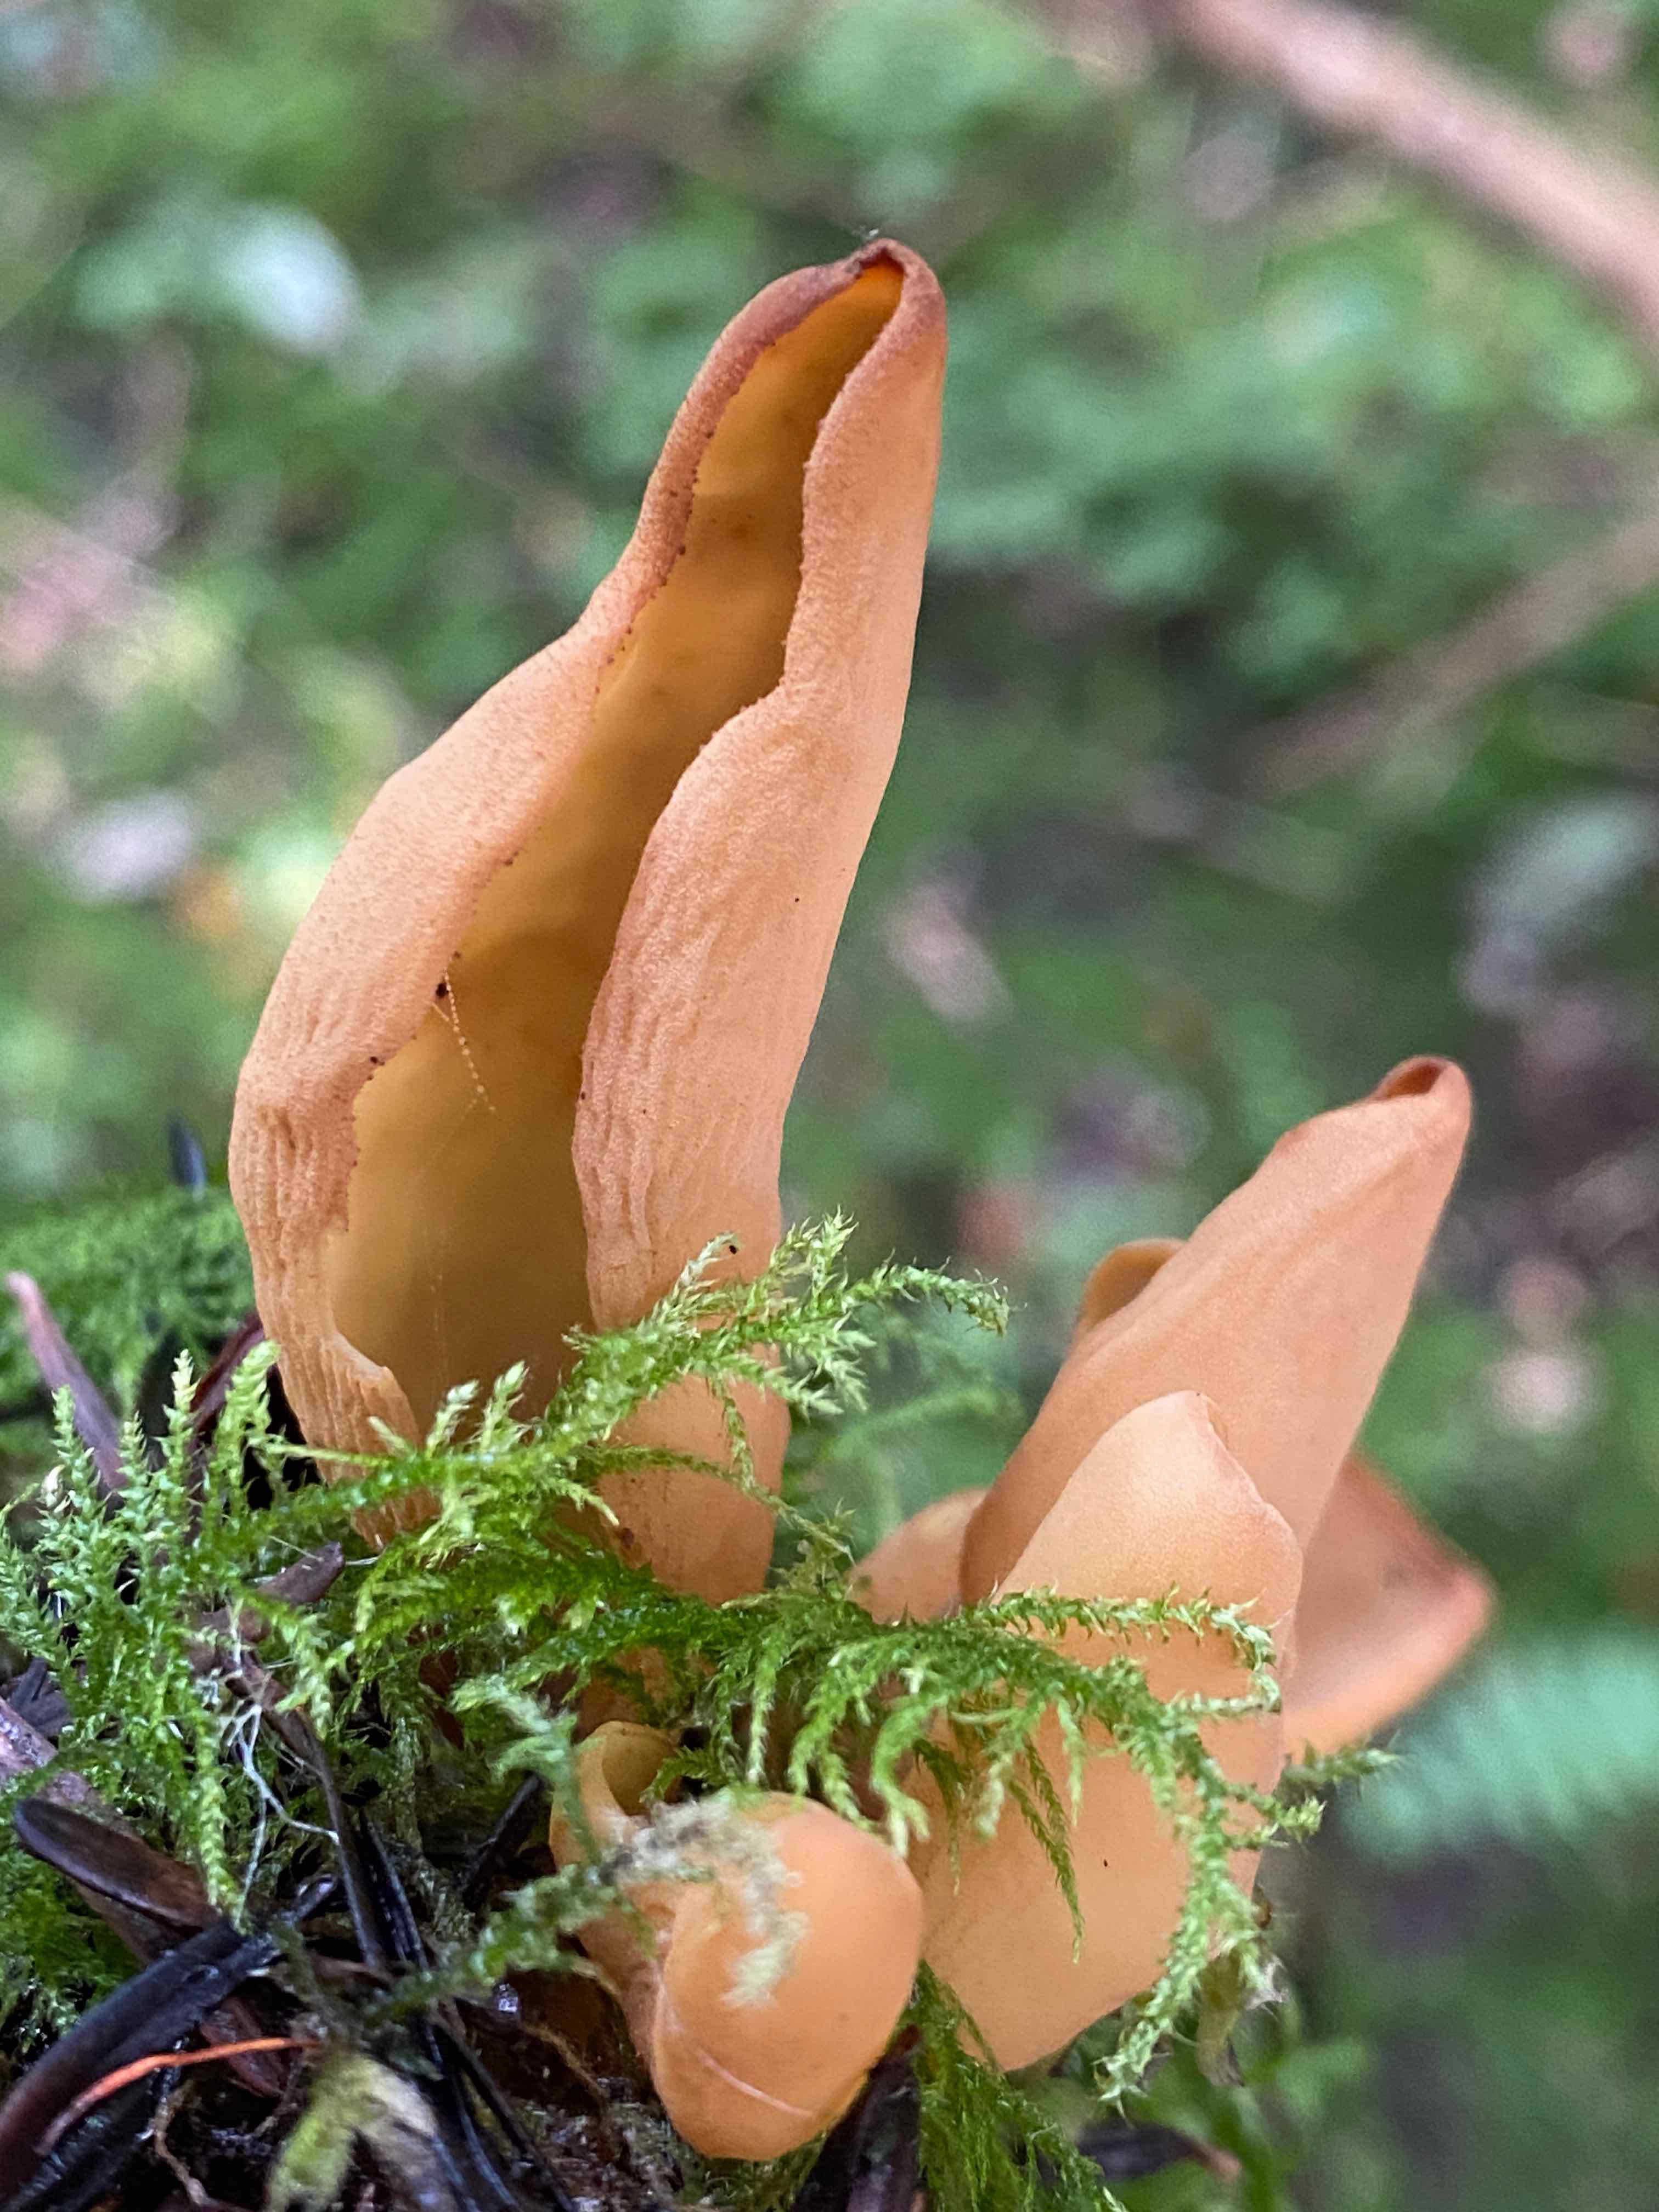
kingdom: Fungi
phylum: Ascomycota
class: Pezizomycetes
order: Pezizales
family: Otideaceae
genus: Otidea
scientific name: Otidea onotica
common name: æsel-ørebæger
